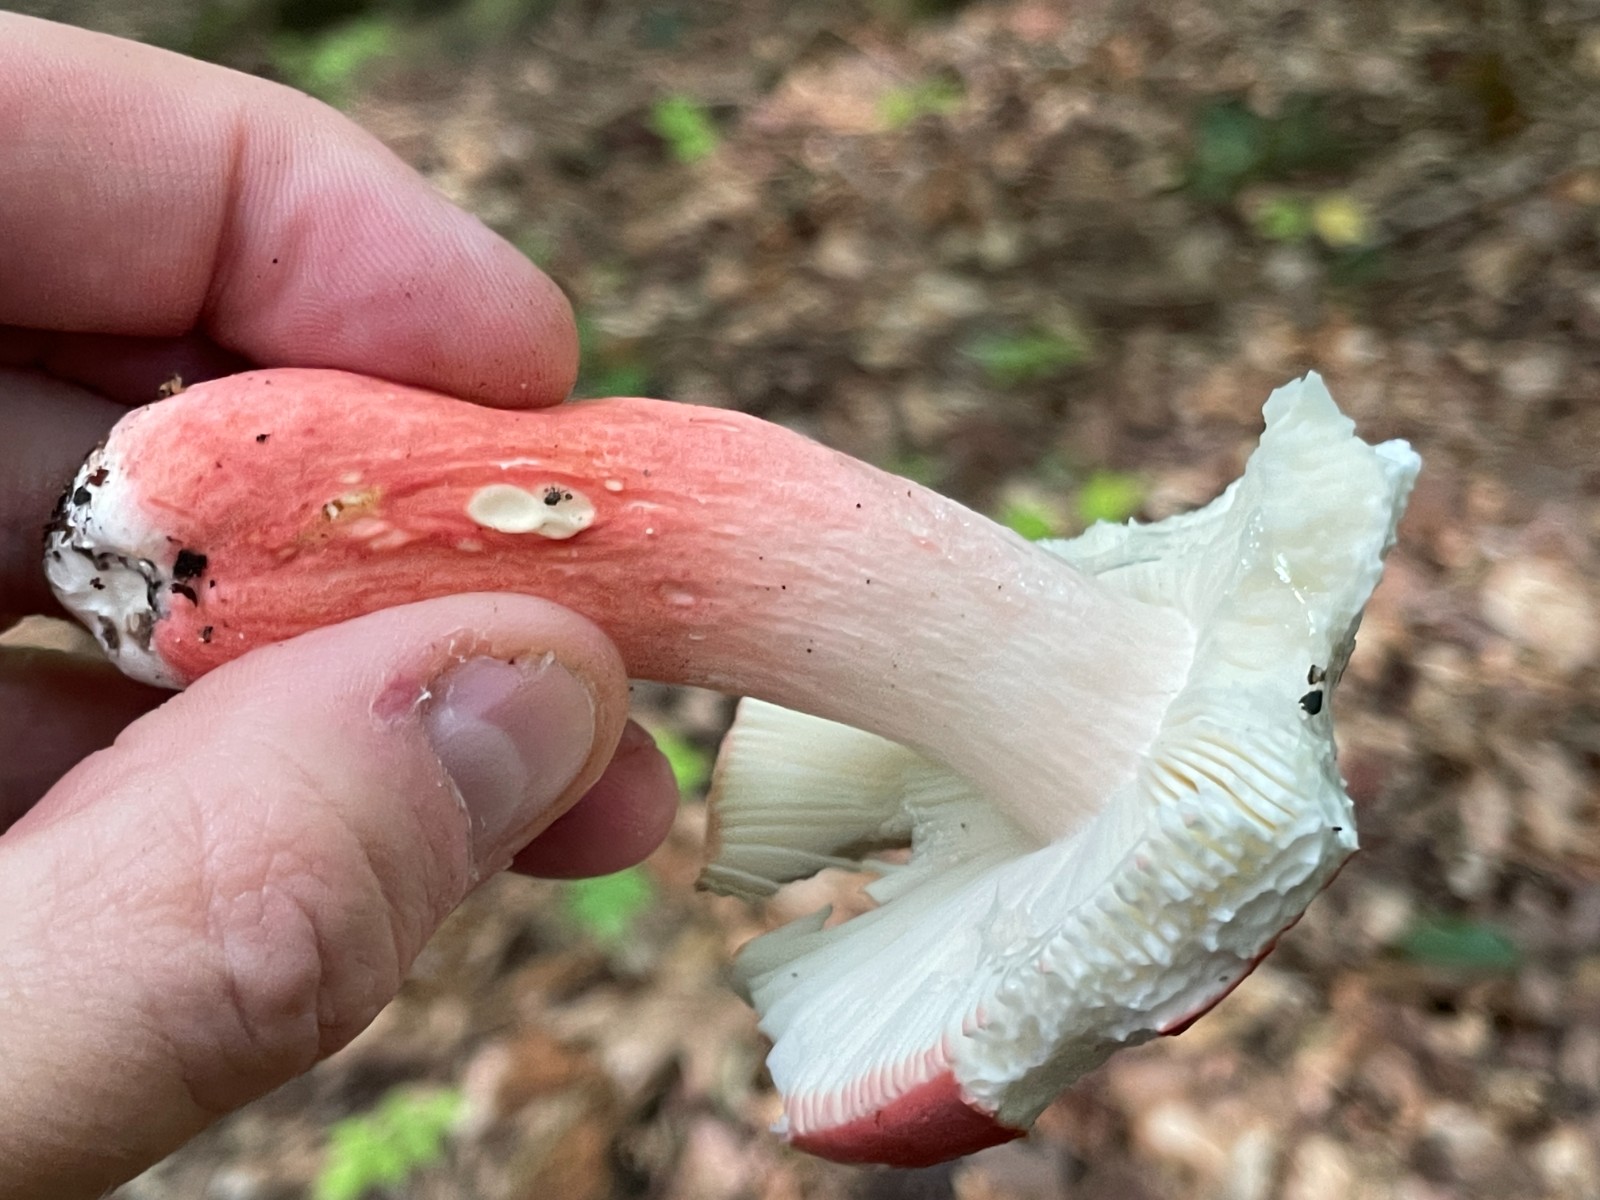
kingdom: Fungi
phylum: Basidiomycota
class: Agaricomycetes
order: Russulales
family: Russulaceae
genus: Russula
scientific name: Russula rosea
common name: fastkødet skørhat
